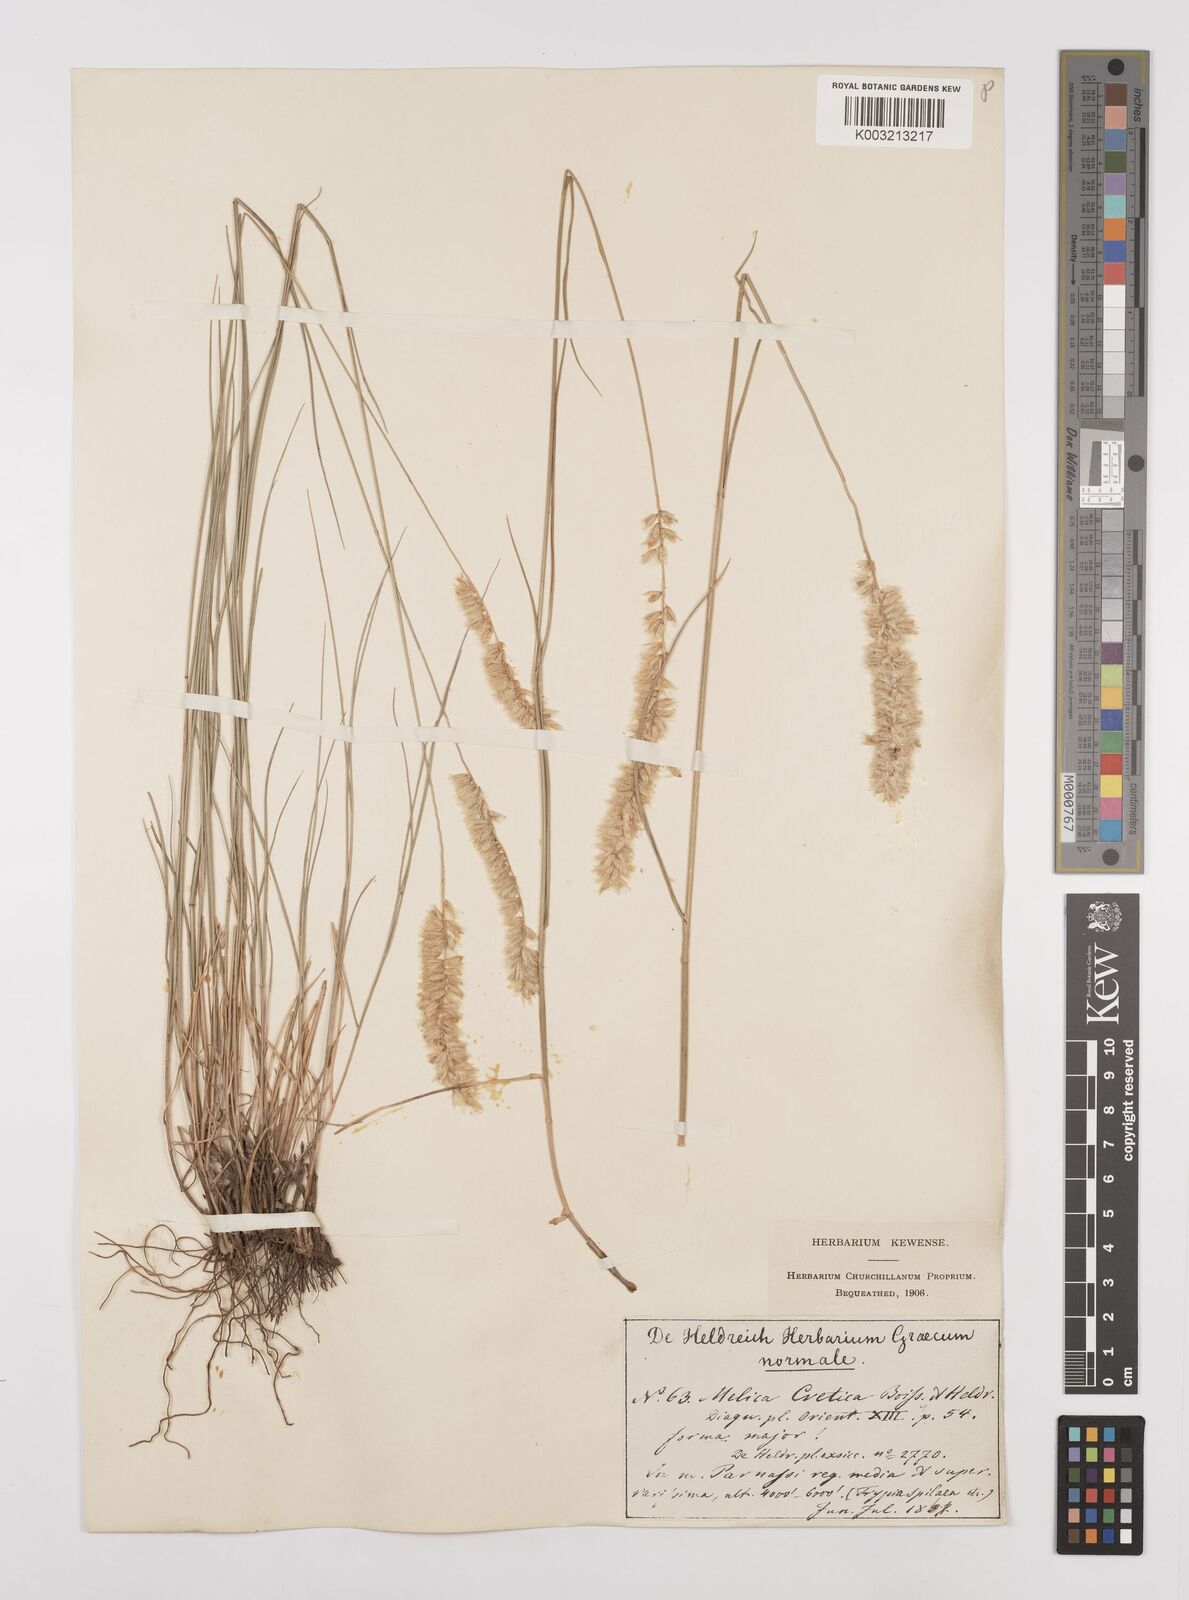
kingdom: Plantae
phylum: Tracheophyta
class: Liliopsida
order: Poales
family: Poaceae
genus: Melica
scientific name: Melica ciliata
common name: Hairy melicgrass
